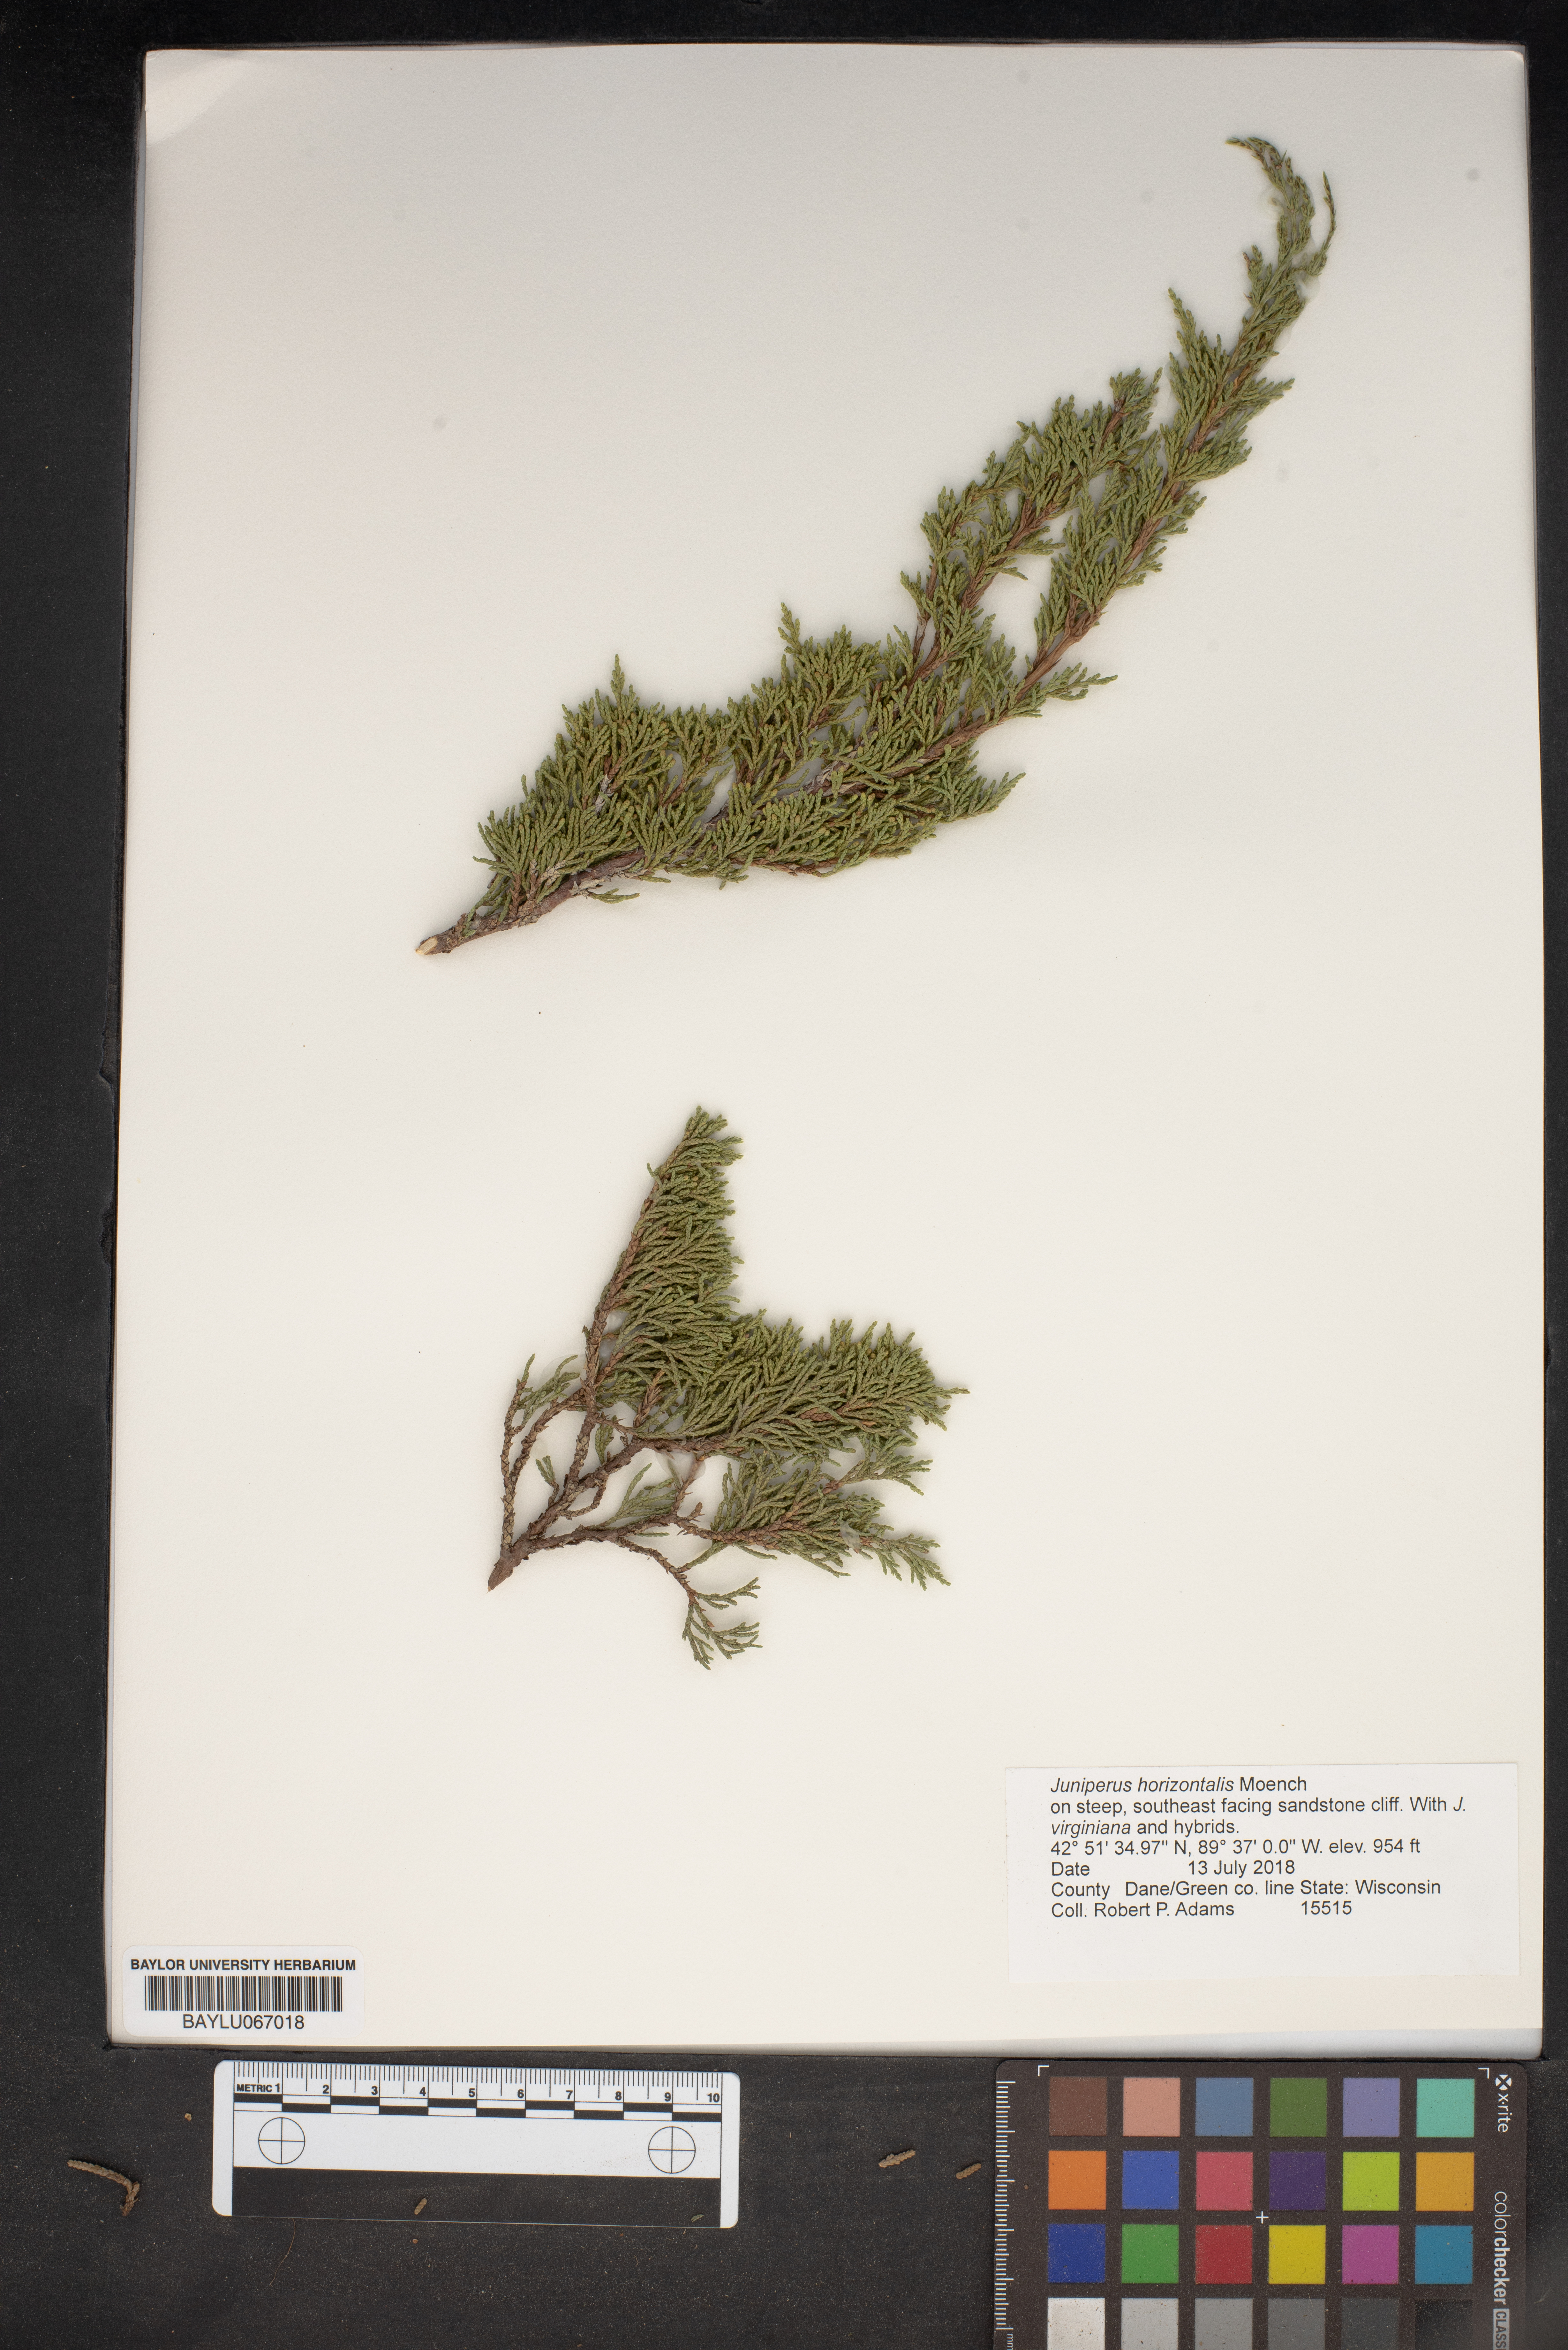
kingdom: Plantae
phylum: Tracheophyta
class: Pinopsida
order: Pinales
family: Cupressaceae
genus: Juniperus
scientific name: Juniperus horizontalis
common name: Creeping juniper
